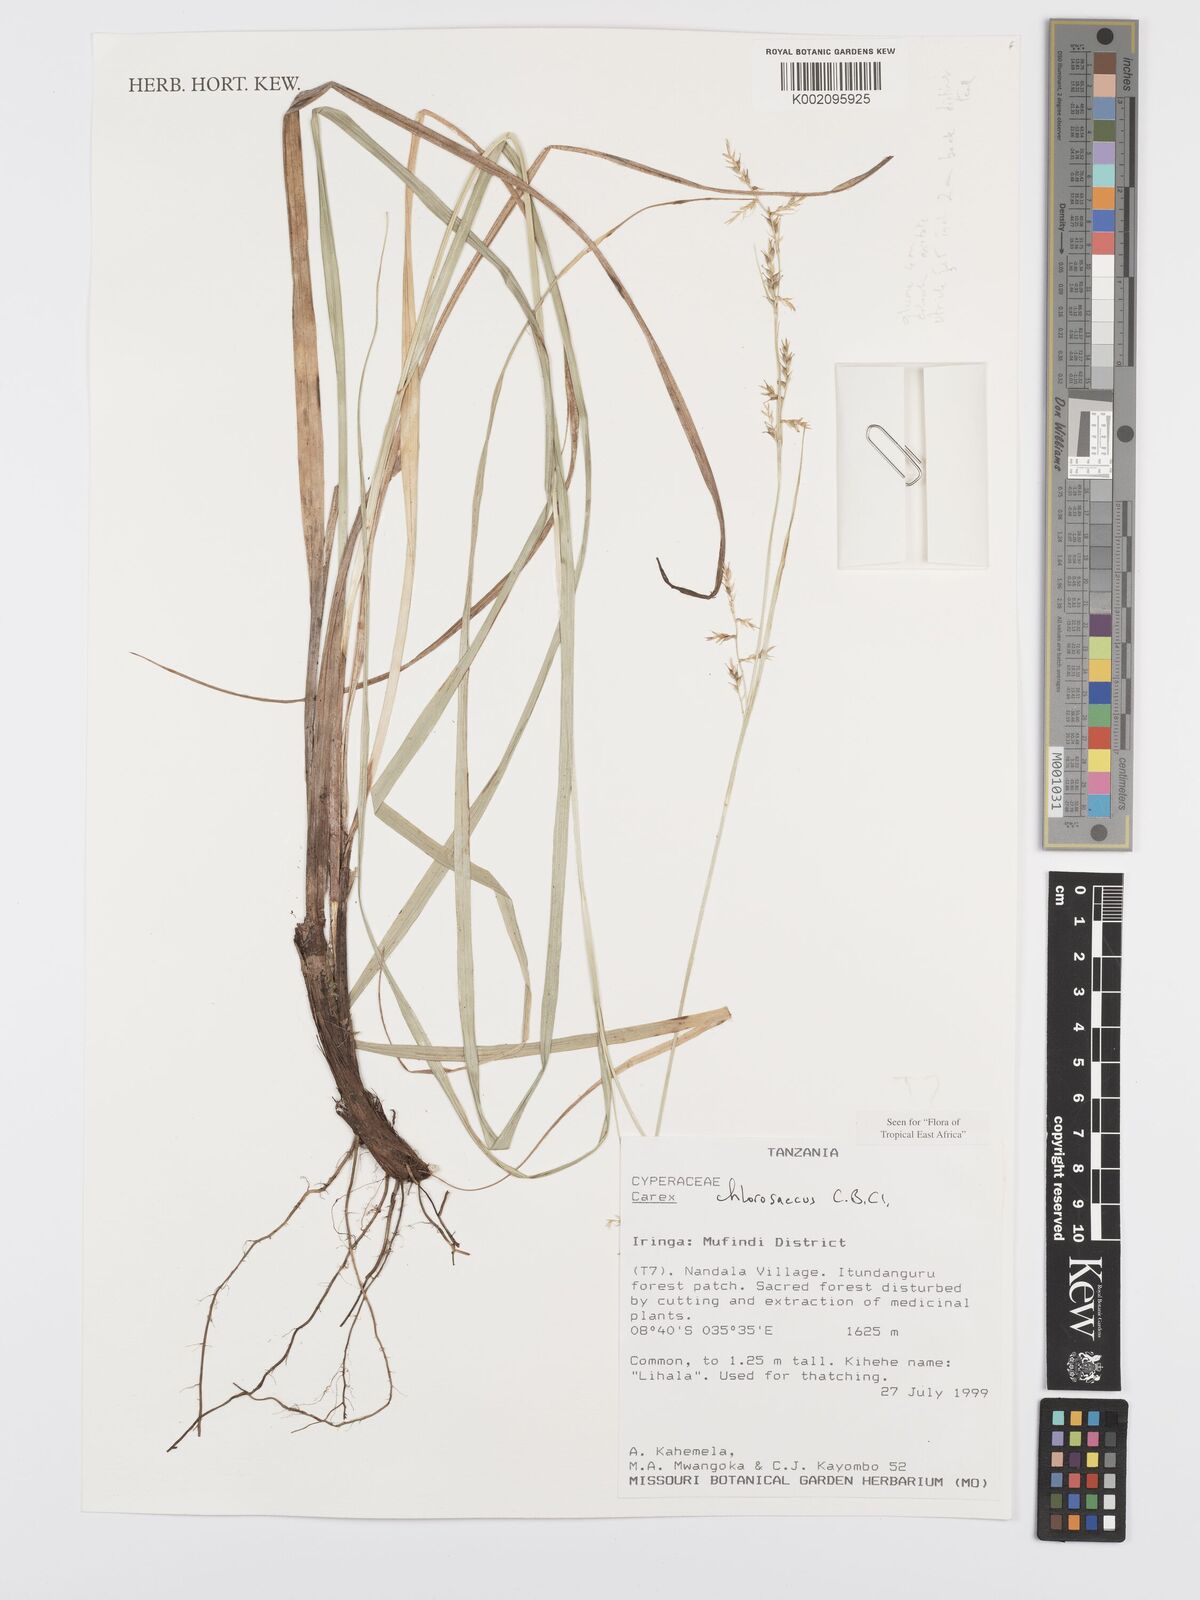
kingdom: Plantae
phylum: Tracheophyta
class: Liliopsida
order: Poales
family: Cyperaceae
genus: Carex
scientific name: Carex chlorosaccus
